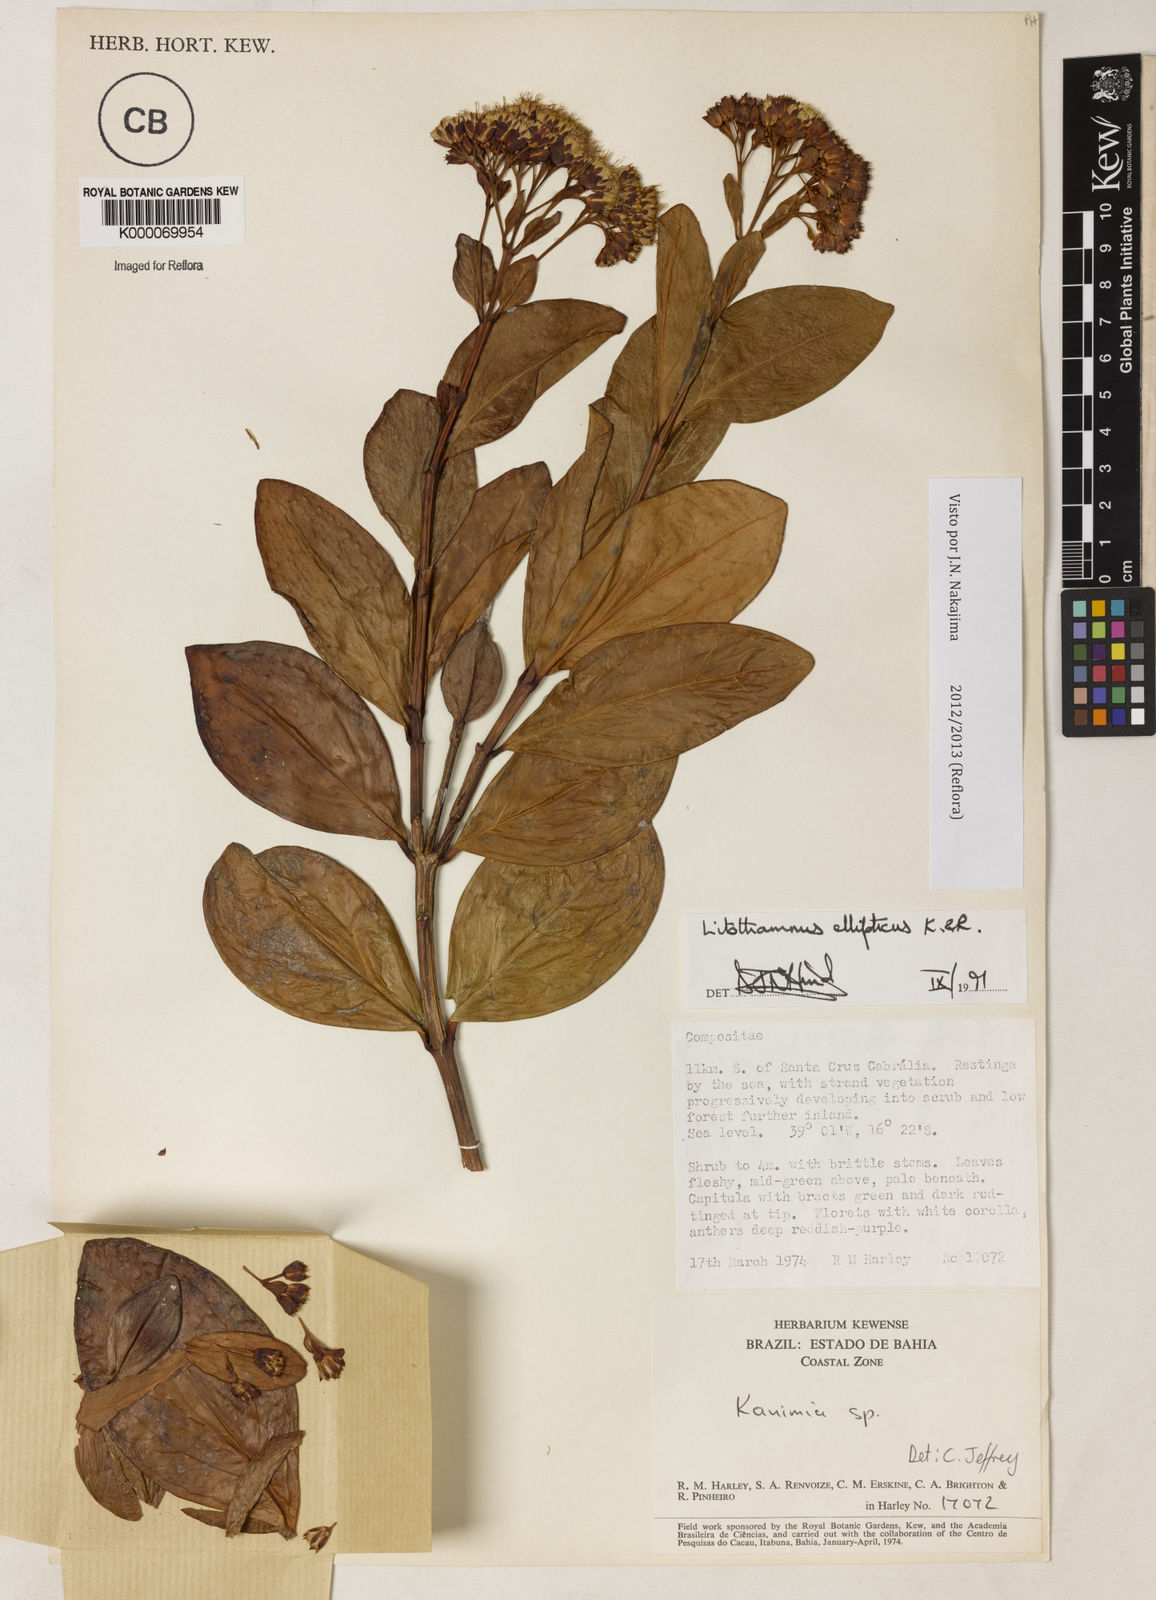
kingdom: Plantae
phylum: Tracheophyta
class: Magnoliopsida
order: Asterales
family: Asteraceae
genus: Litothamnus
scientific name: Litothamnus ellipticus
